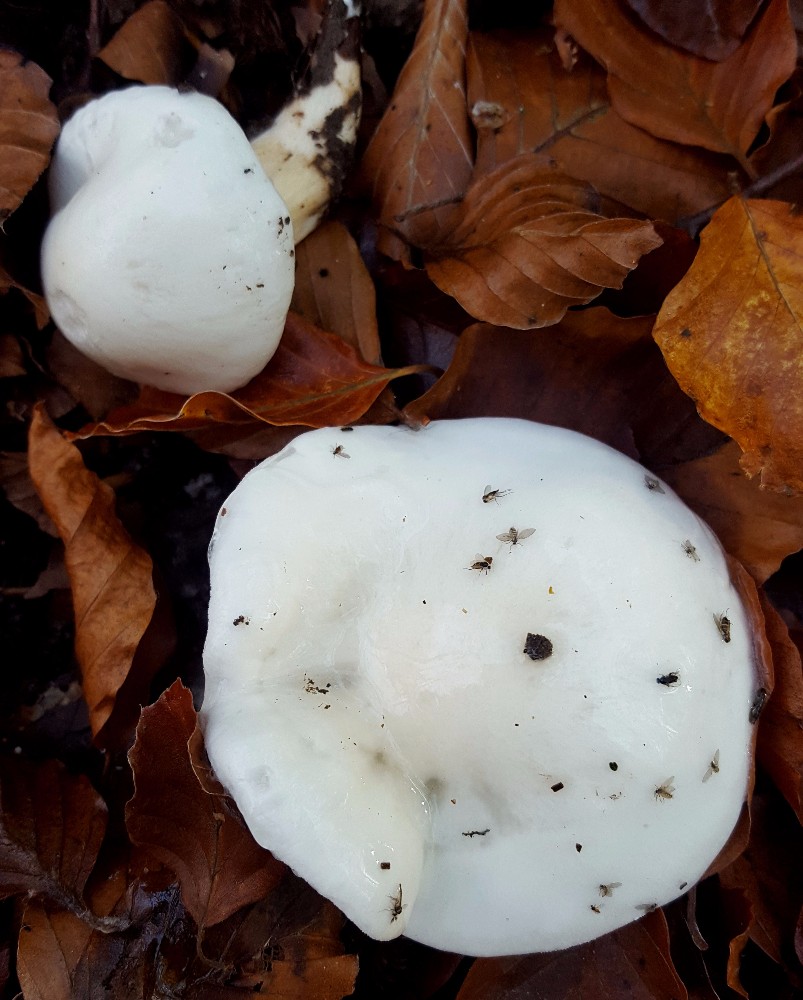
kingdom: Fungi
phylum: Basidiomycota
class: Agaricomycetes
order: Agaricales
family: Hygrophoraceae
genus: Hygrophorus
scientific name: Hygrophorus eburneus
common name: elfenbens-sneglehat
